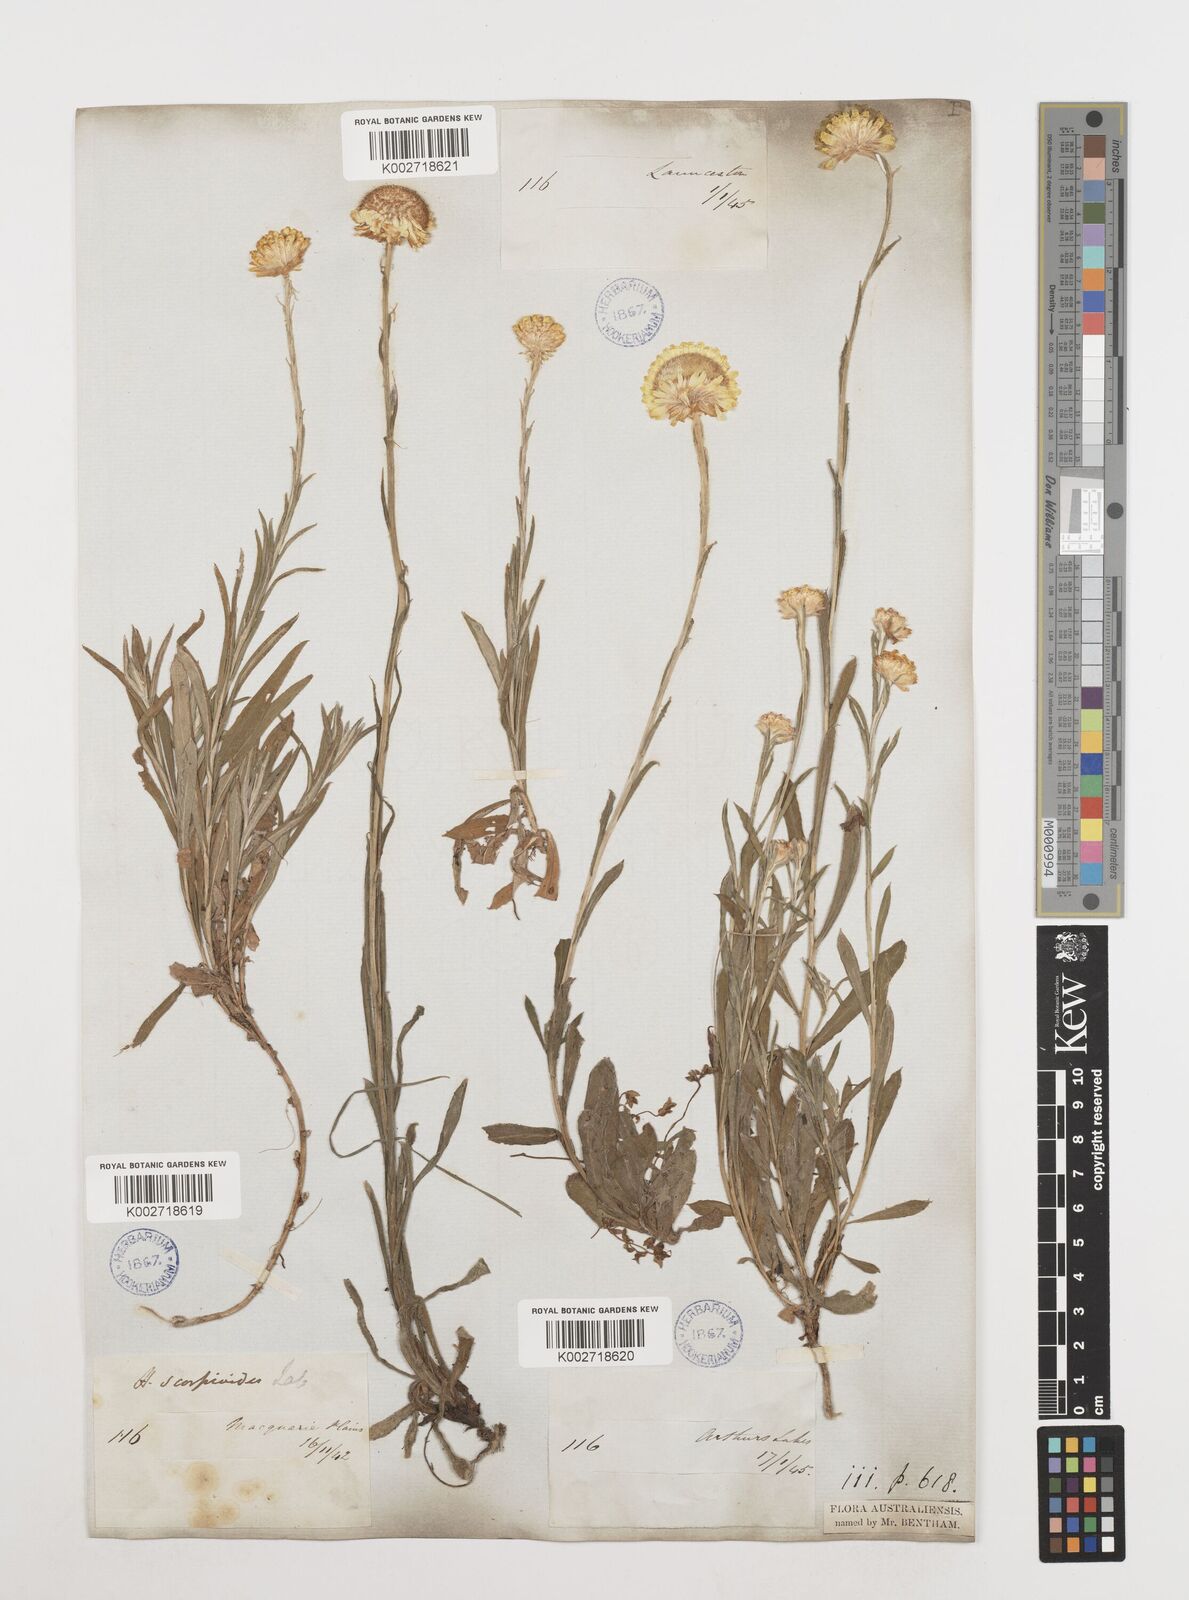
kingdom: Plantae
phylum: Tracheophyta
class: Magnoliopsida
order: Asterales
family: Asteraceae
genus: Coronidium
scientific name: Coronidium scorpioides
